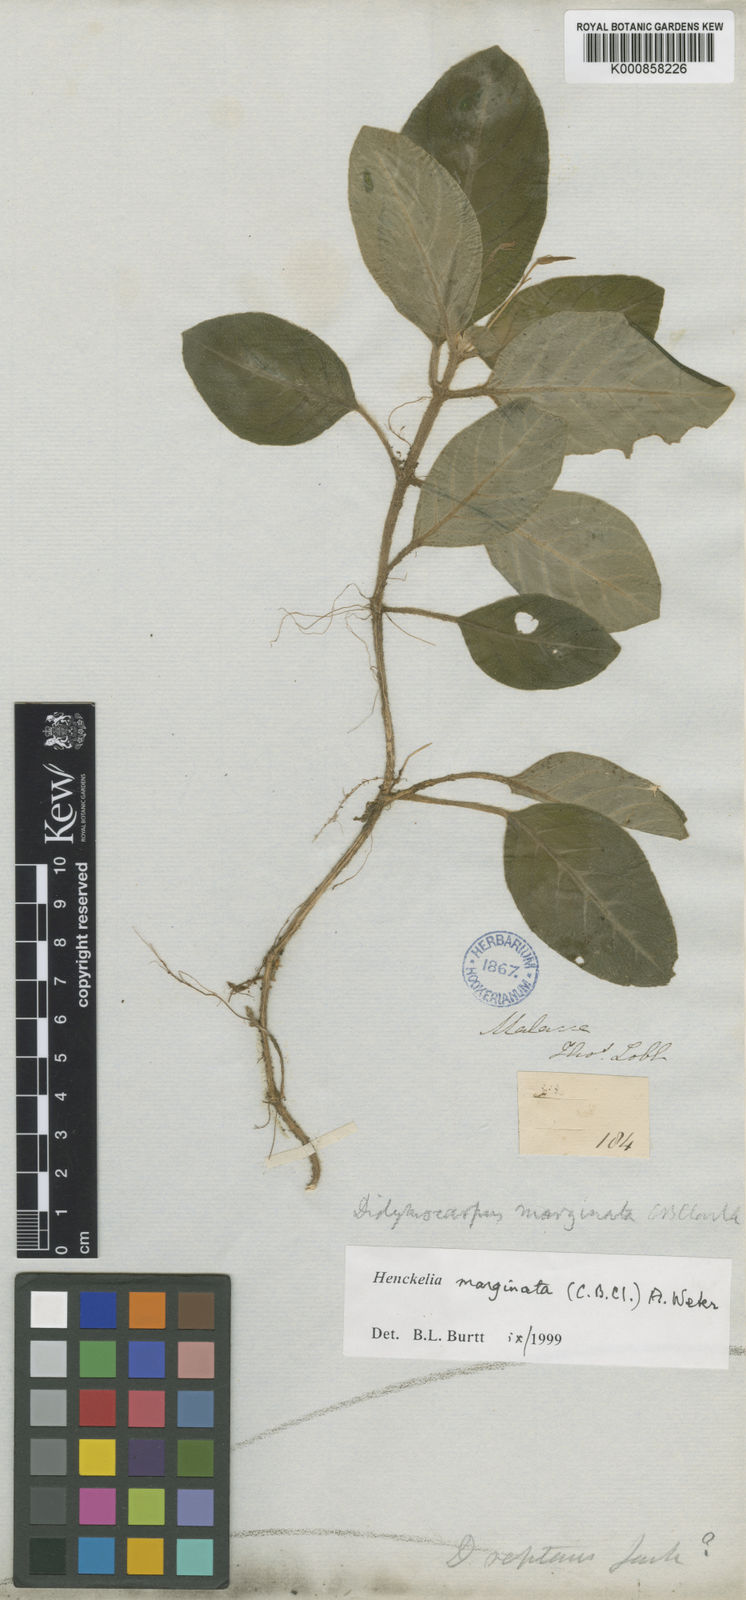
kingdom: Plantae
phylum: Tracheophyta
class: Magnoliopsida
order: Lamiales
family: Gesneriaceae
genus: Codonoboea
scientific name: Codonoboea marginata
